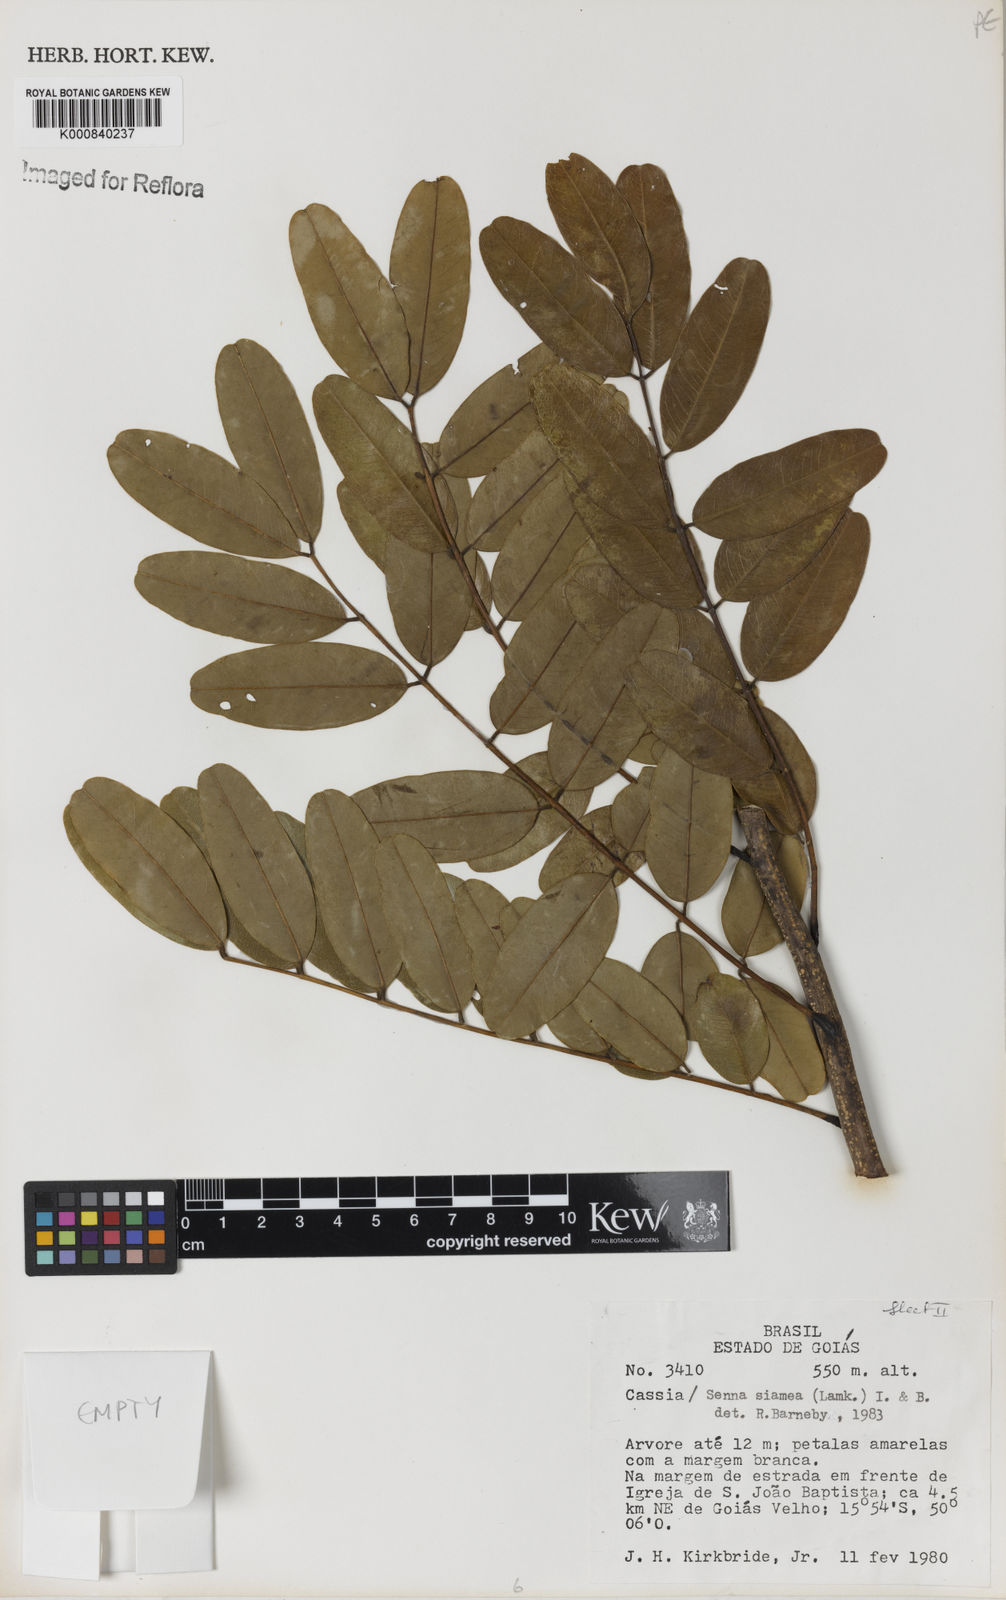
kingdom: Plantae
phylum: Tracheophyta
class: Magnoliopsida
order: Fabales
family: Fabaceae
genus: Senna
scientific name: Senna siamea
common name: Siamese cassia
